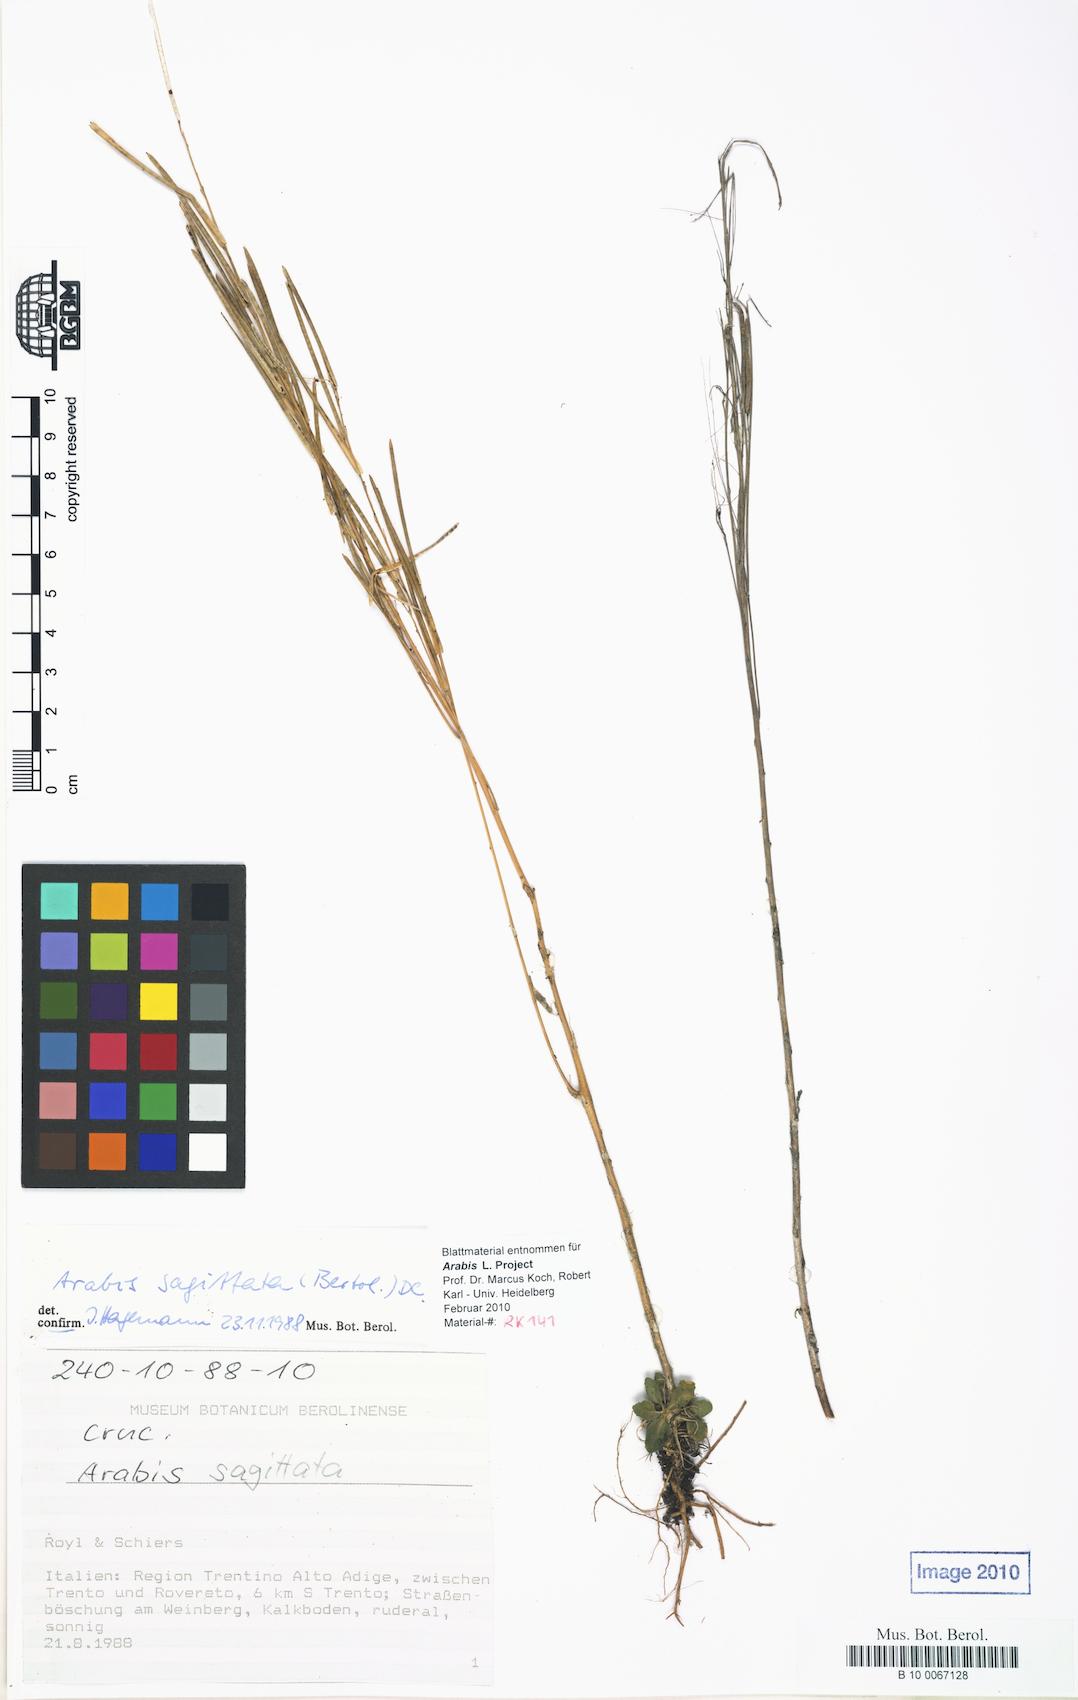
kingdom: Plantae
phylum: Tracheophyta
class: Magnoliopsida
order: Brassicales
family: Brassicaceae
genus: Arabis
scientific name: Arabis sagittata
